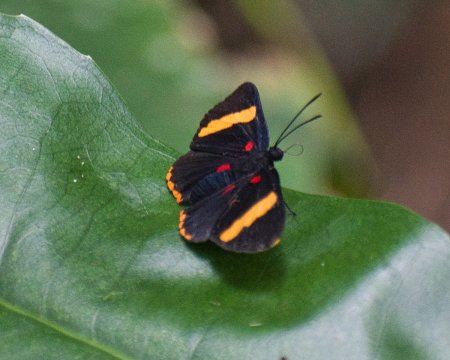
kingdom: Animalia
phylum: Arthropoda
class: Insecta
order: Lepidoptera
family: Lycaenidae
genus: Melanis
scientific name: Melanis electron
